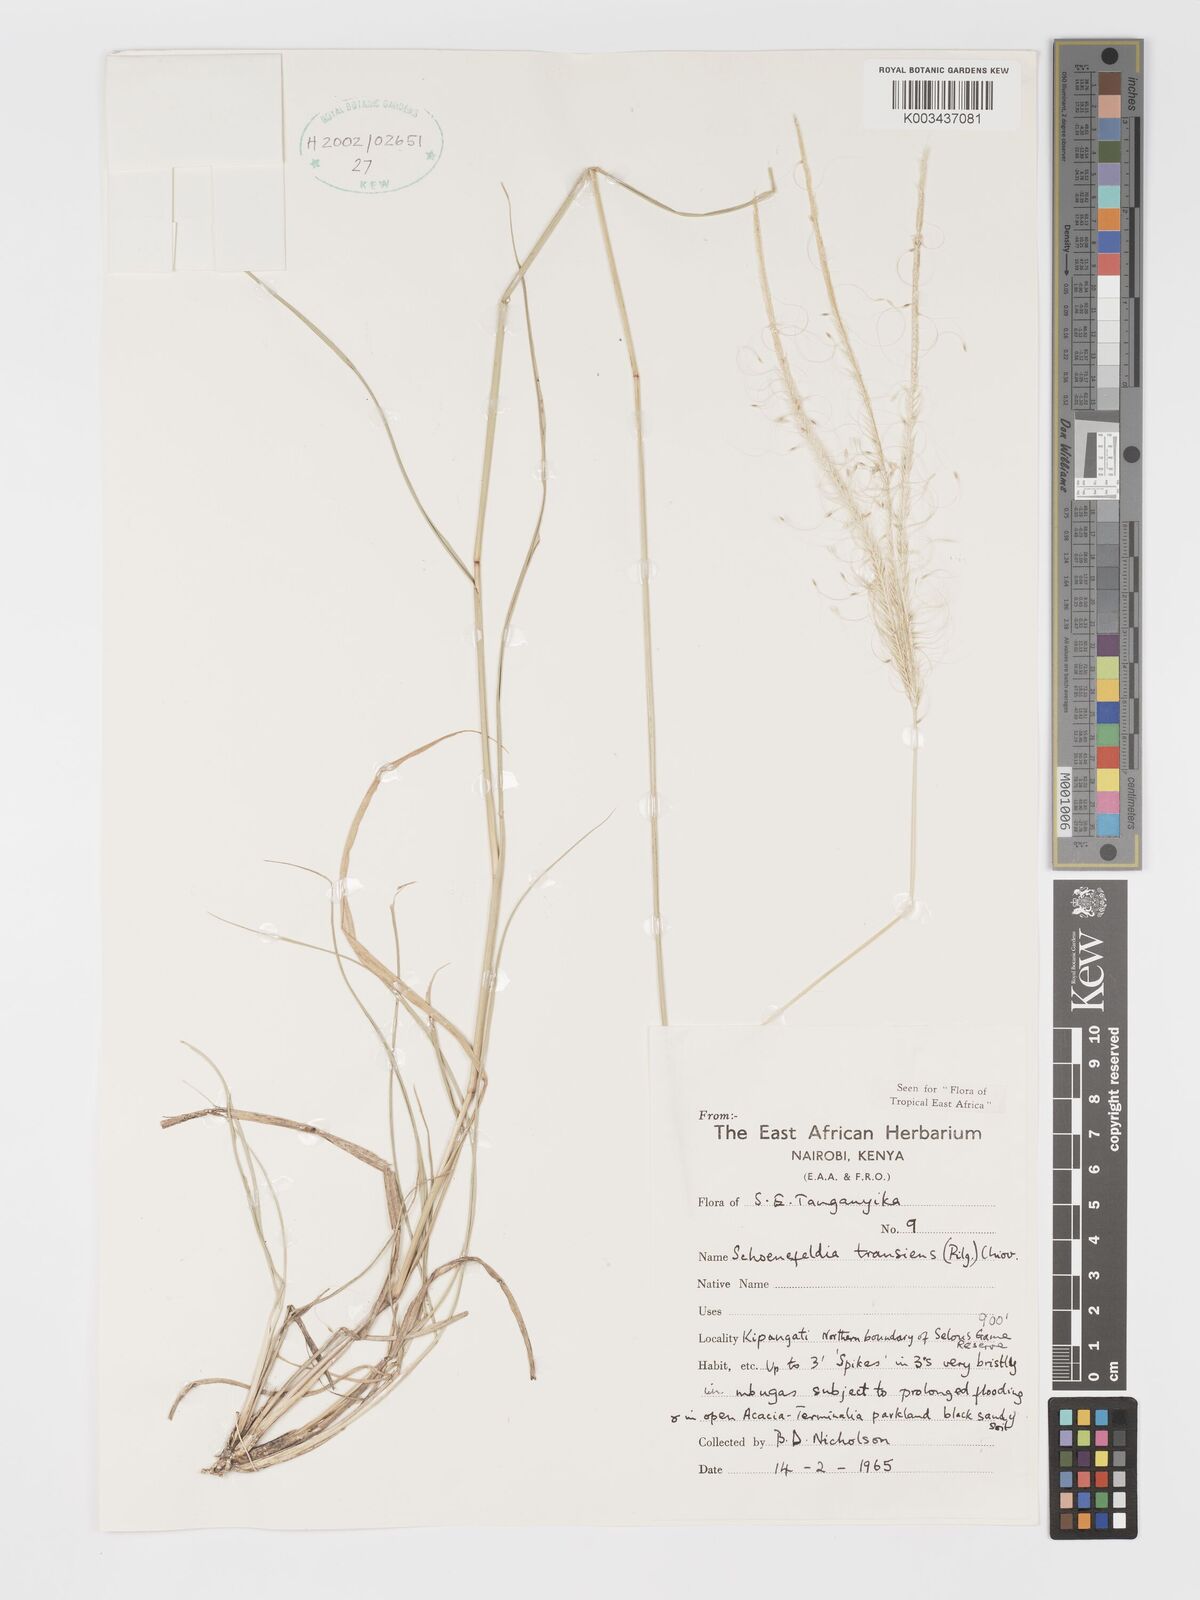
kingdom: Plantae
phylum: Tracheophyta
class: Liliopsida
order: Poales
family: Poaceae
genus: Schoenefeldia
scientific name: Schoenefeldia transiens
